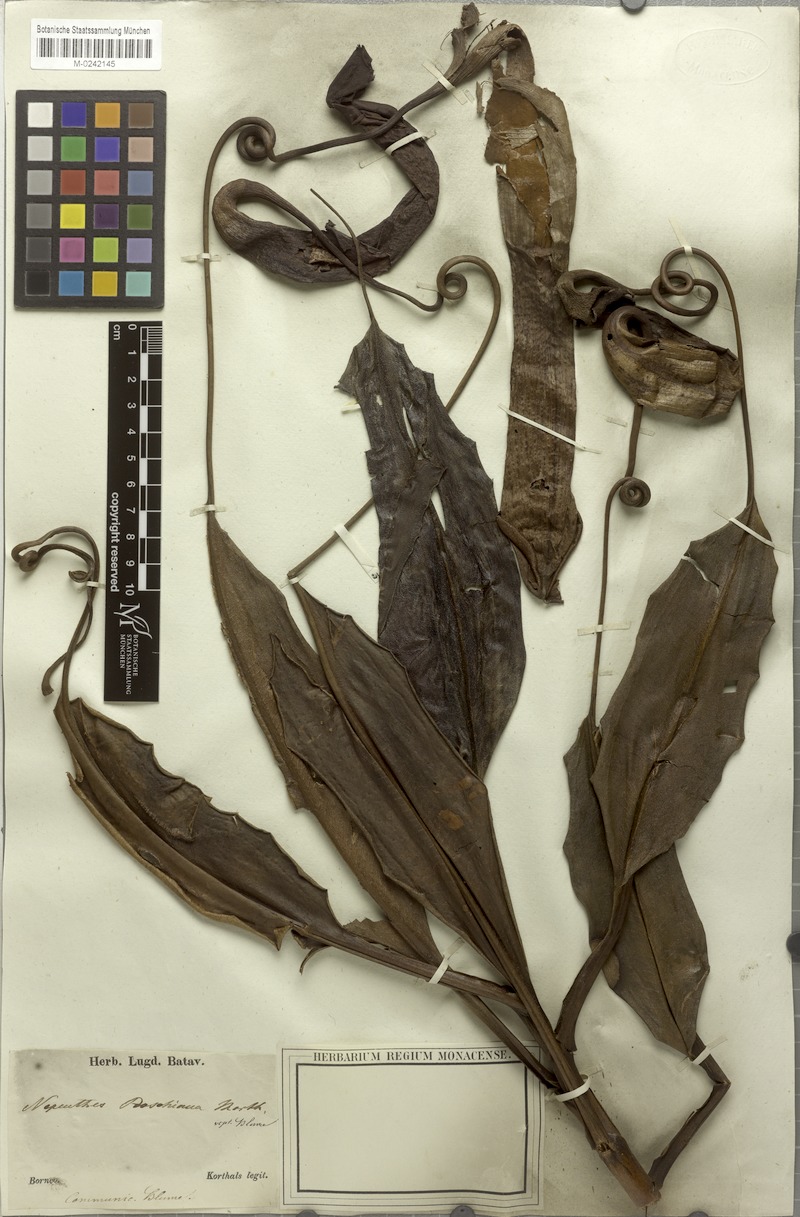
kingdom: Plantae
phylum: Tracheophyta
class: Magnoliopsida
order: Caryophyllales
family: Nepenthaceae
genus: Nepenthes
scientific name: Nepenthes boschiana
